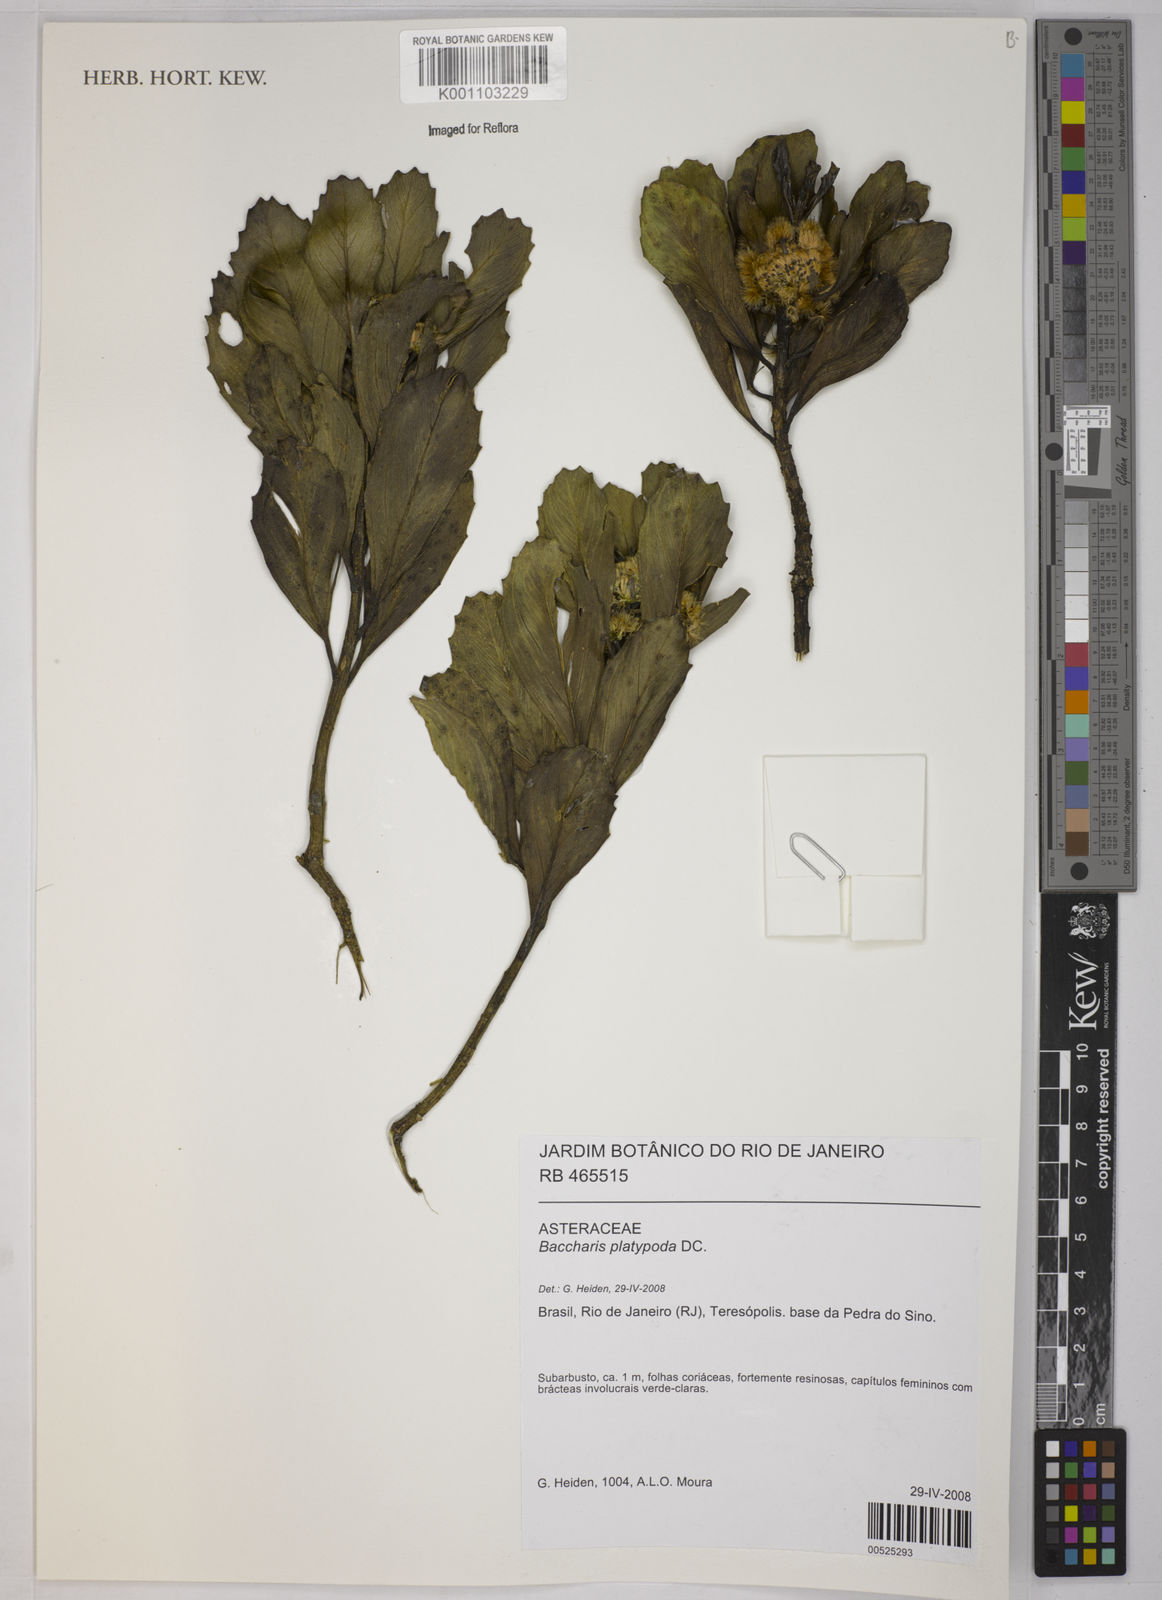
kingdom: Plantae
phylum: Tracheophyta
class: Magnoliopsida
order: Asterales
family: Asteraceae
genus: Baccharis
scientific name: Baccharis platypoda
